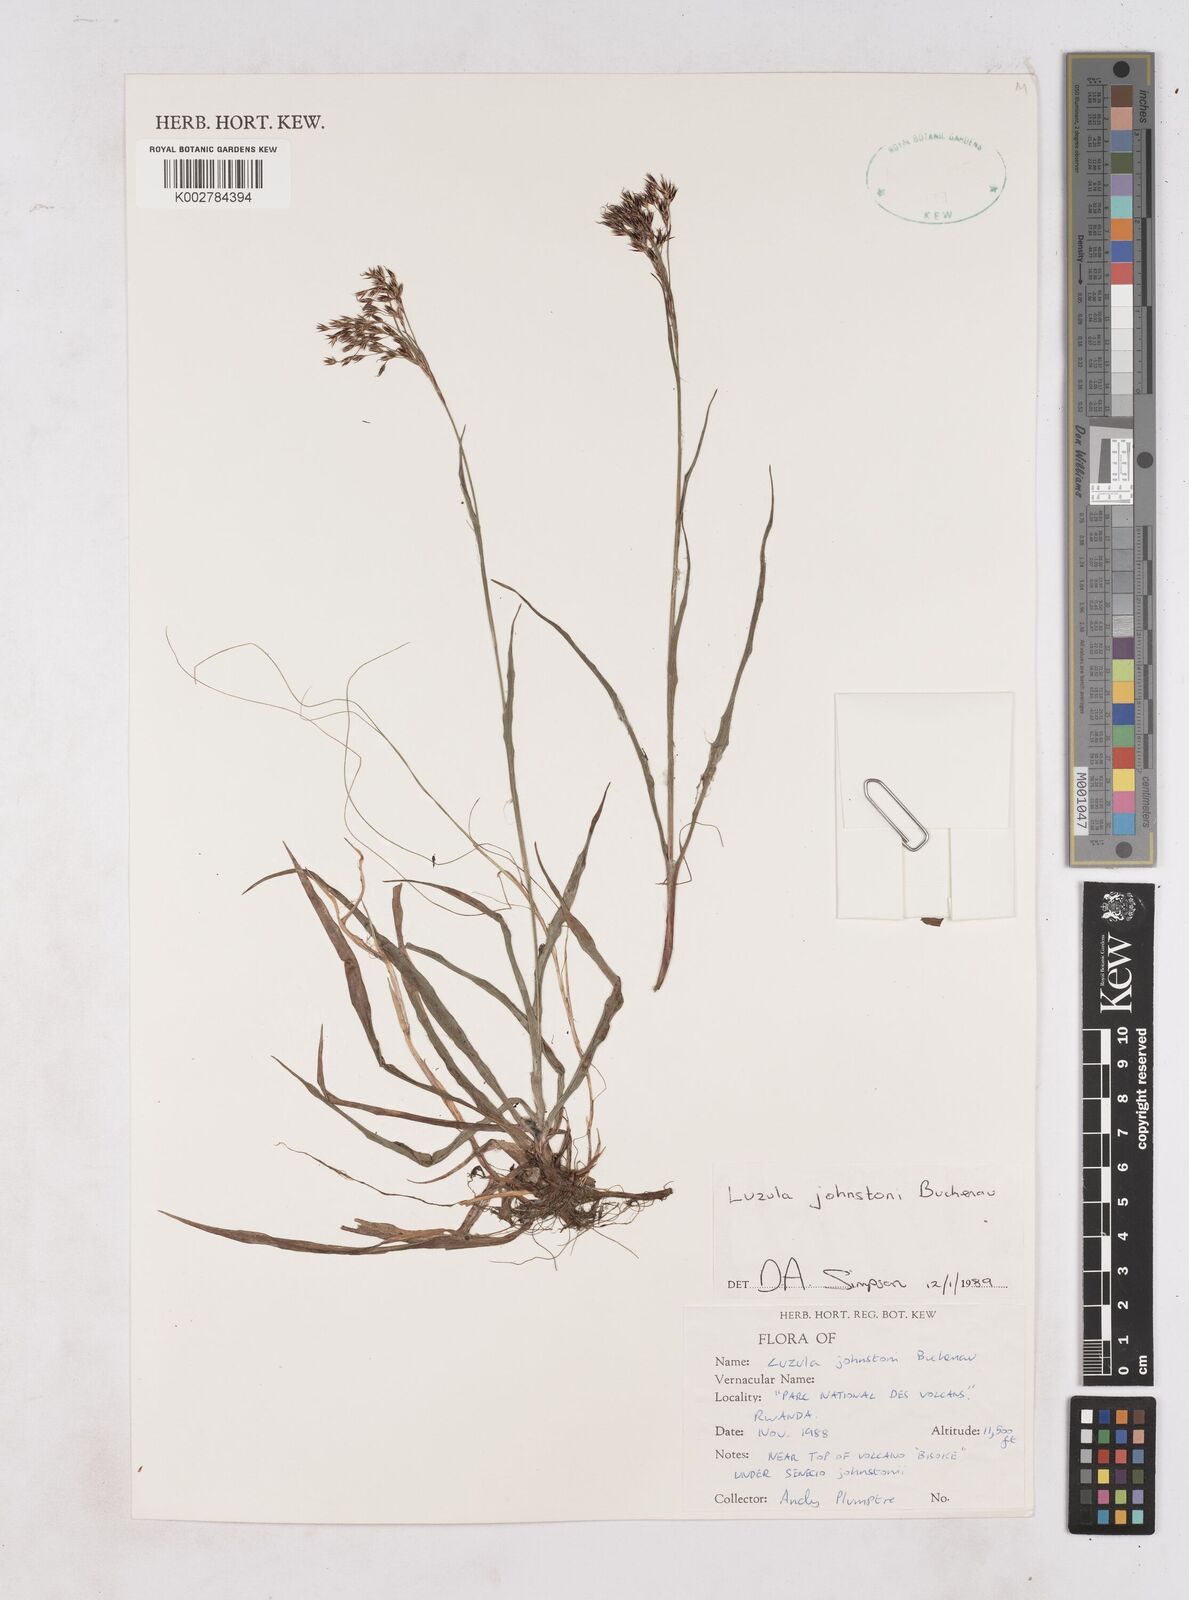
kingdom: Plantae
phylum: Tracheophyta
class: Liliopsida
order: Poales
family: Juncaceae
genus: Luzula
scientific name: Luzula johnstonii
